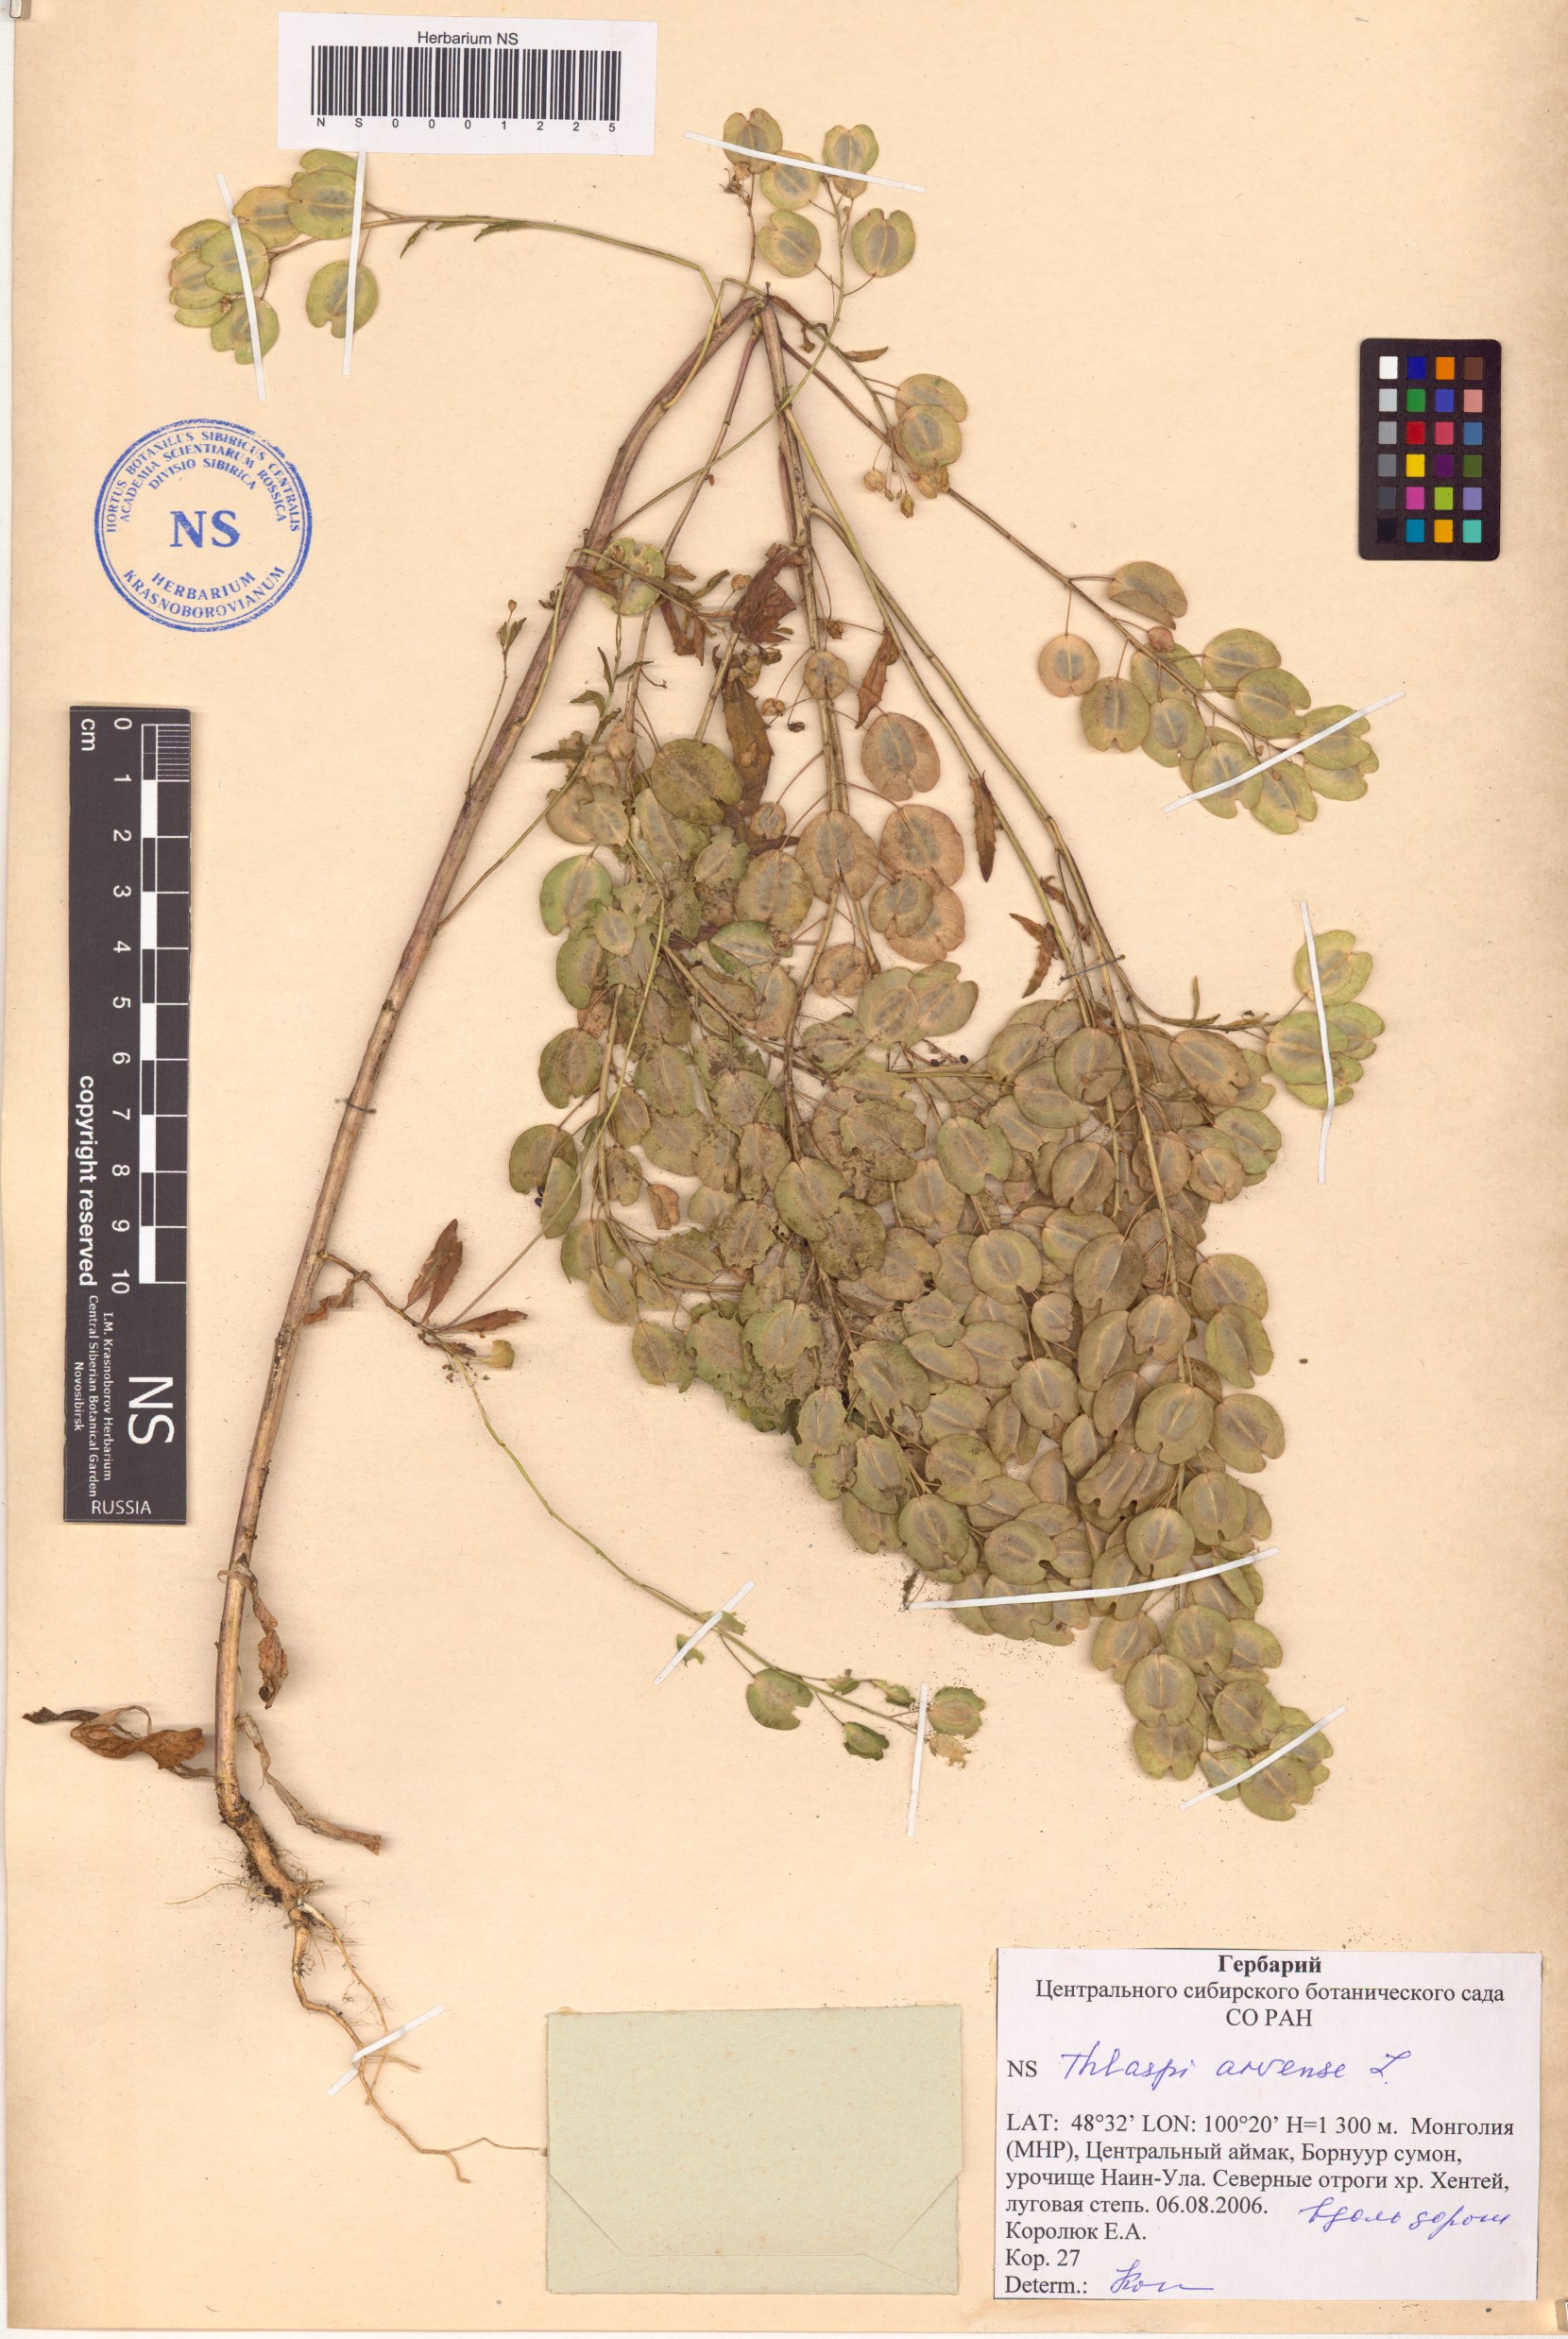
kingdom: Plantae
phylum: Tracheophyta
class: Magnoliopsida
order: Brassicales
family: Brassicaceae
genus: Thlaspi
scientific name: Thlaspi arvense
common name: Field pennycress
